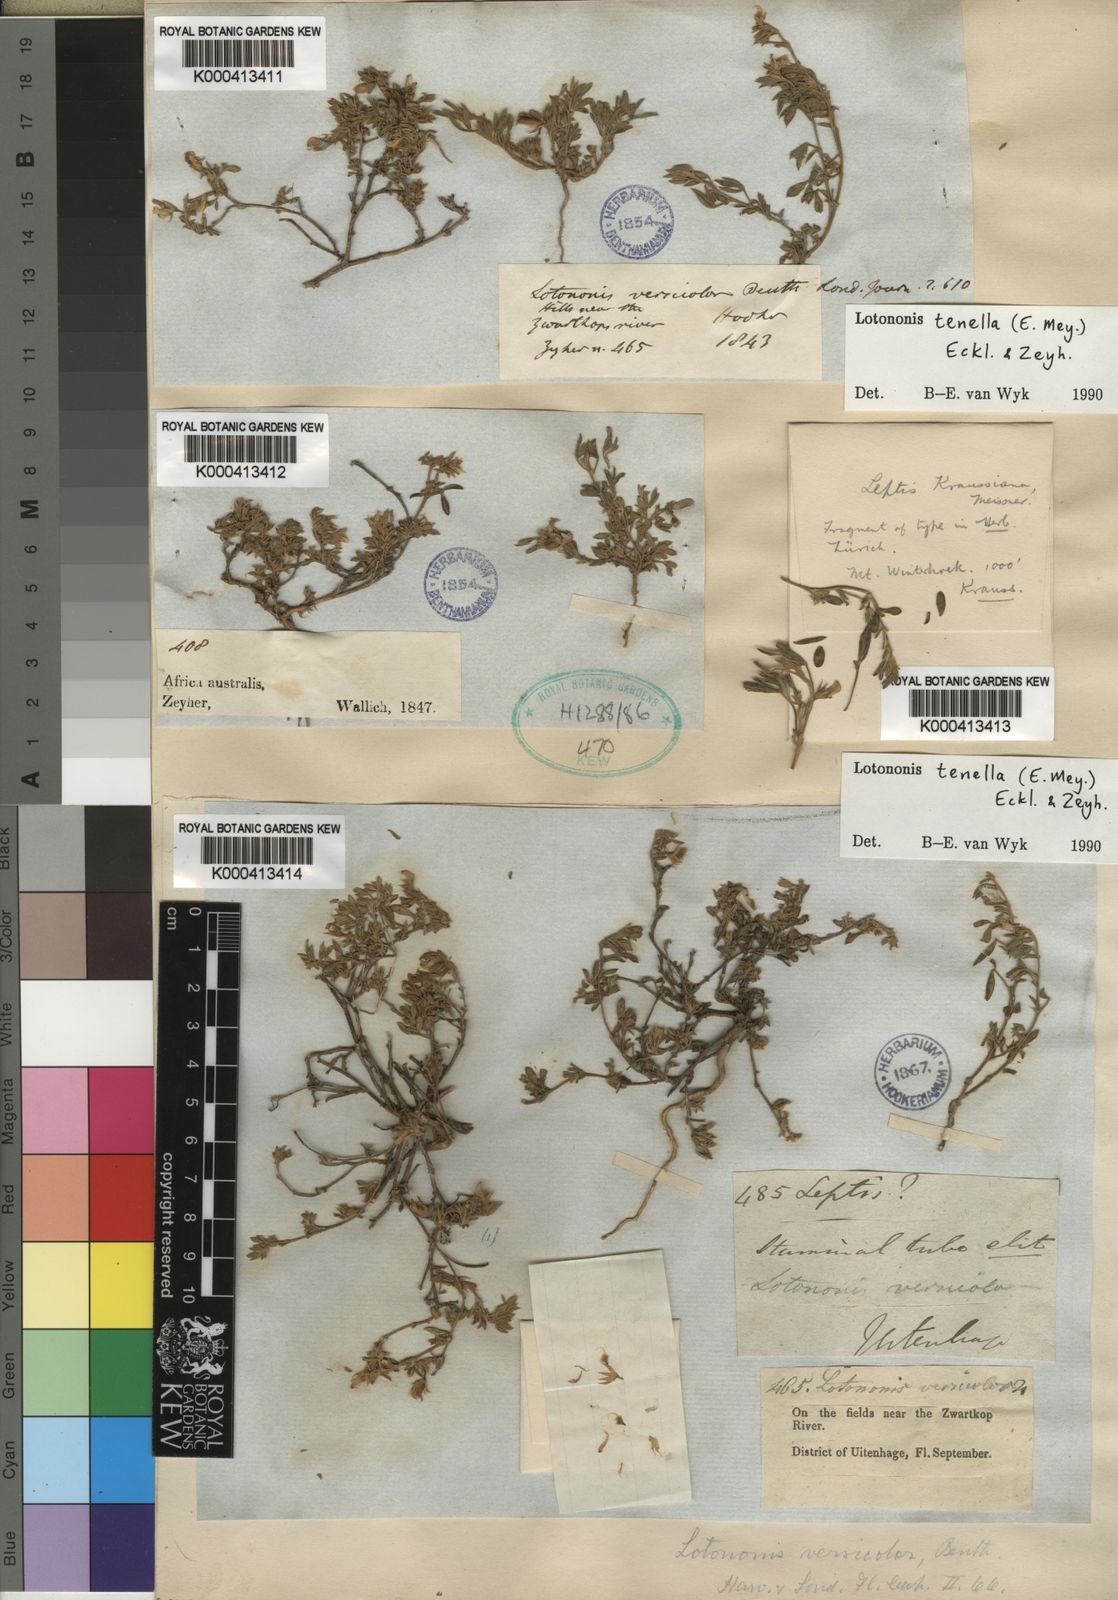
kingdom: Plantae
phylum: Tracheophyta
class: Magnoliopsida
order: Fabales
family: Fabaceae
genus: Lotononis
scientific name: Lotononis tenella
